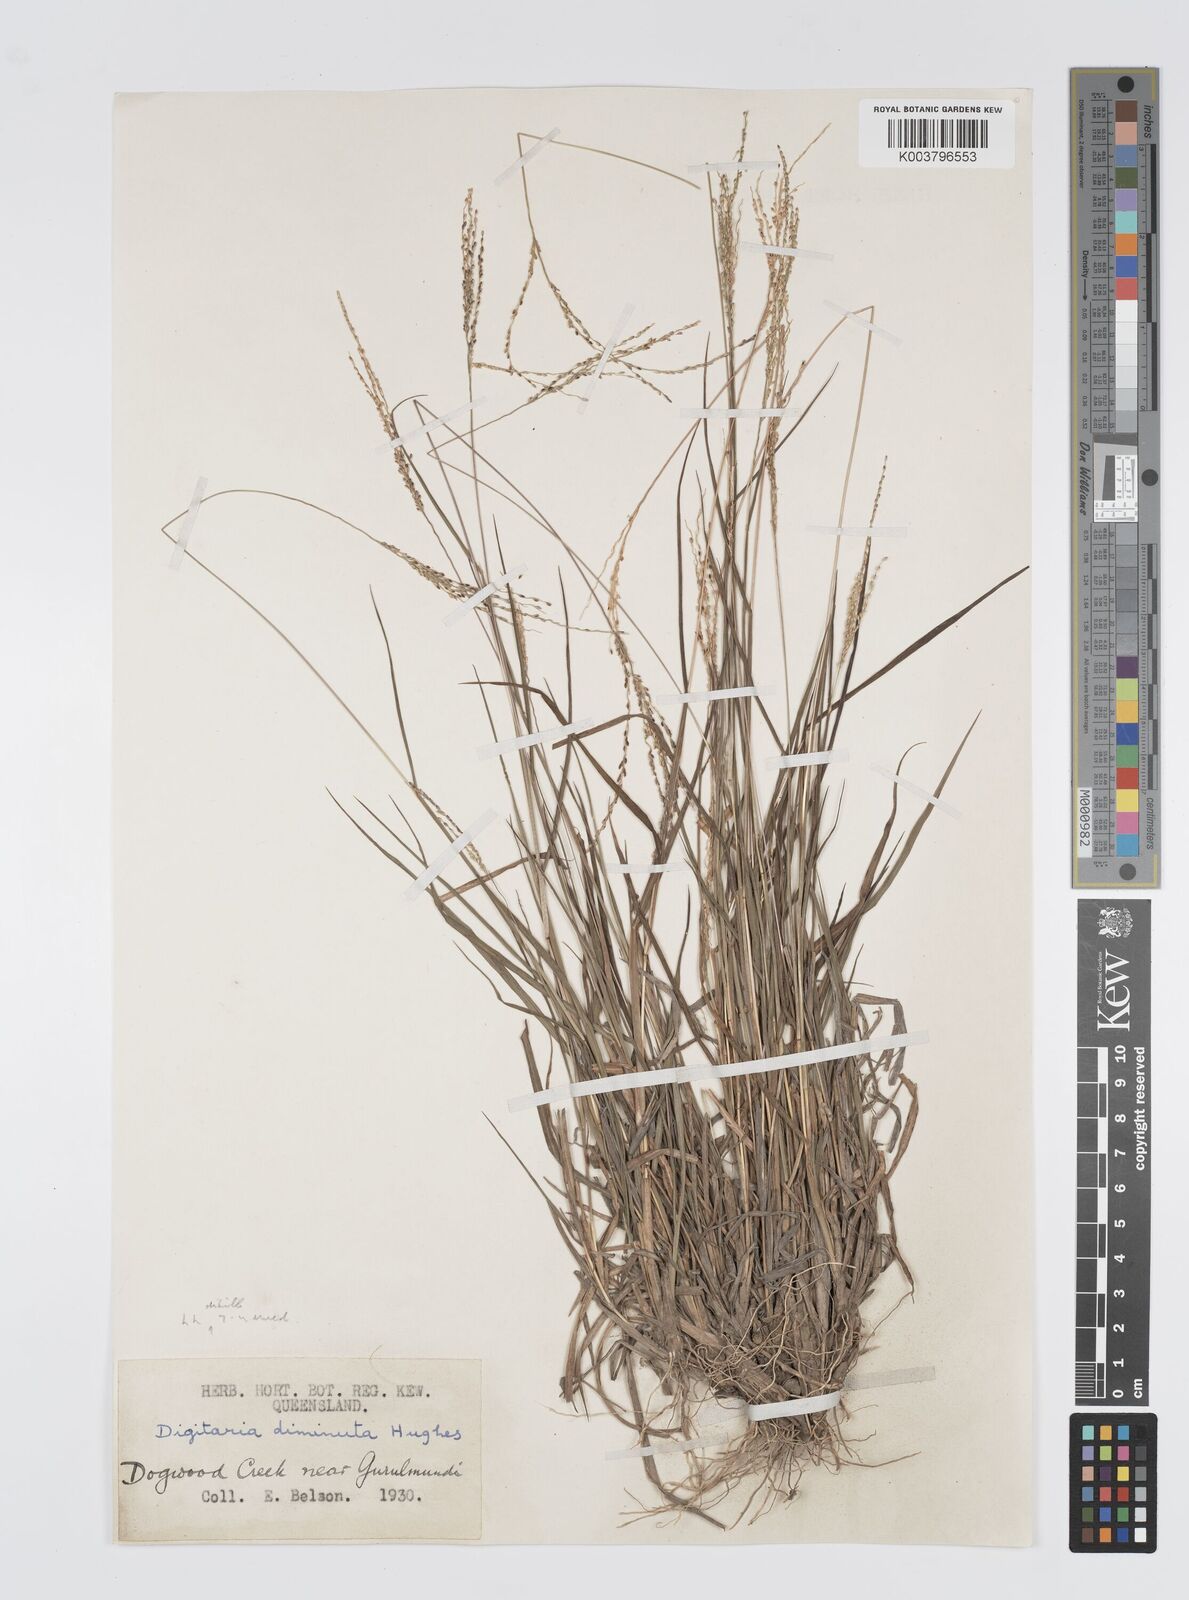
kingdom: Plantae
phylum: Tracheophyta
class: Liliopsida
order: Poales
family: Poaceae
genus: Digitaria
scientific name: Digitaria breviglumis
